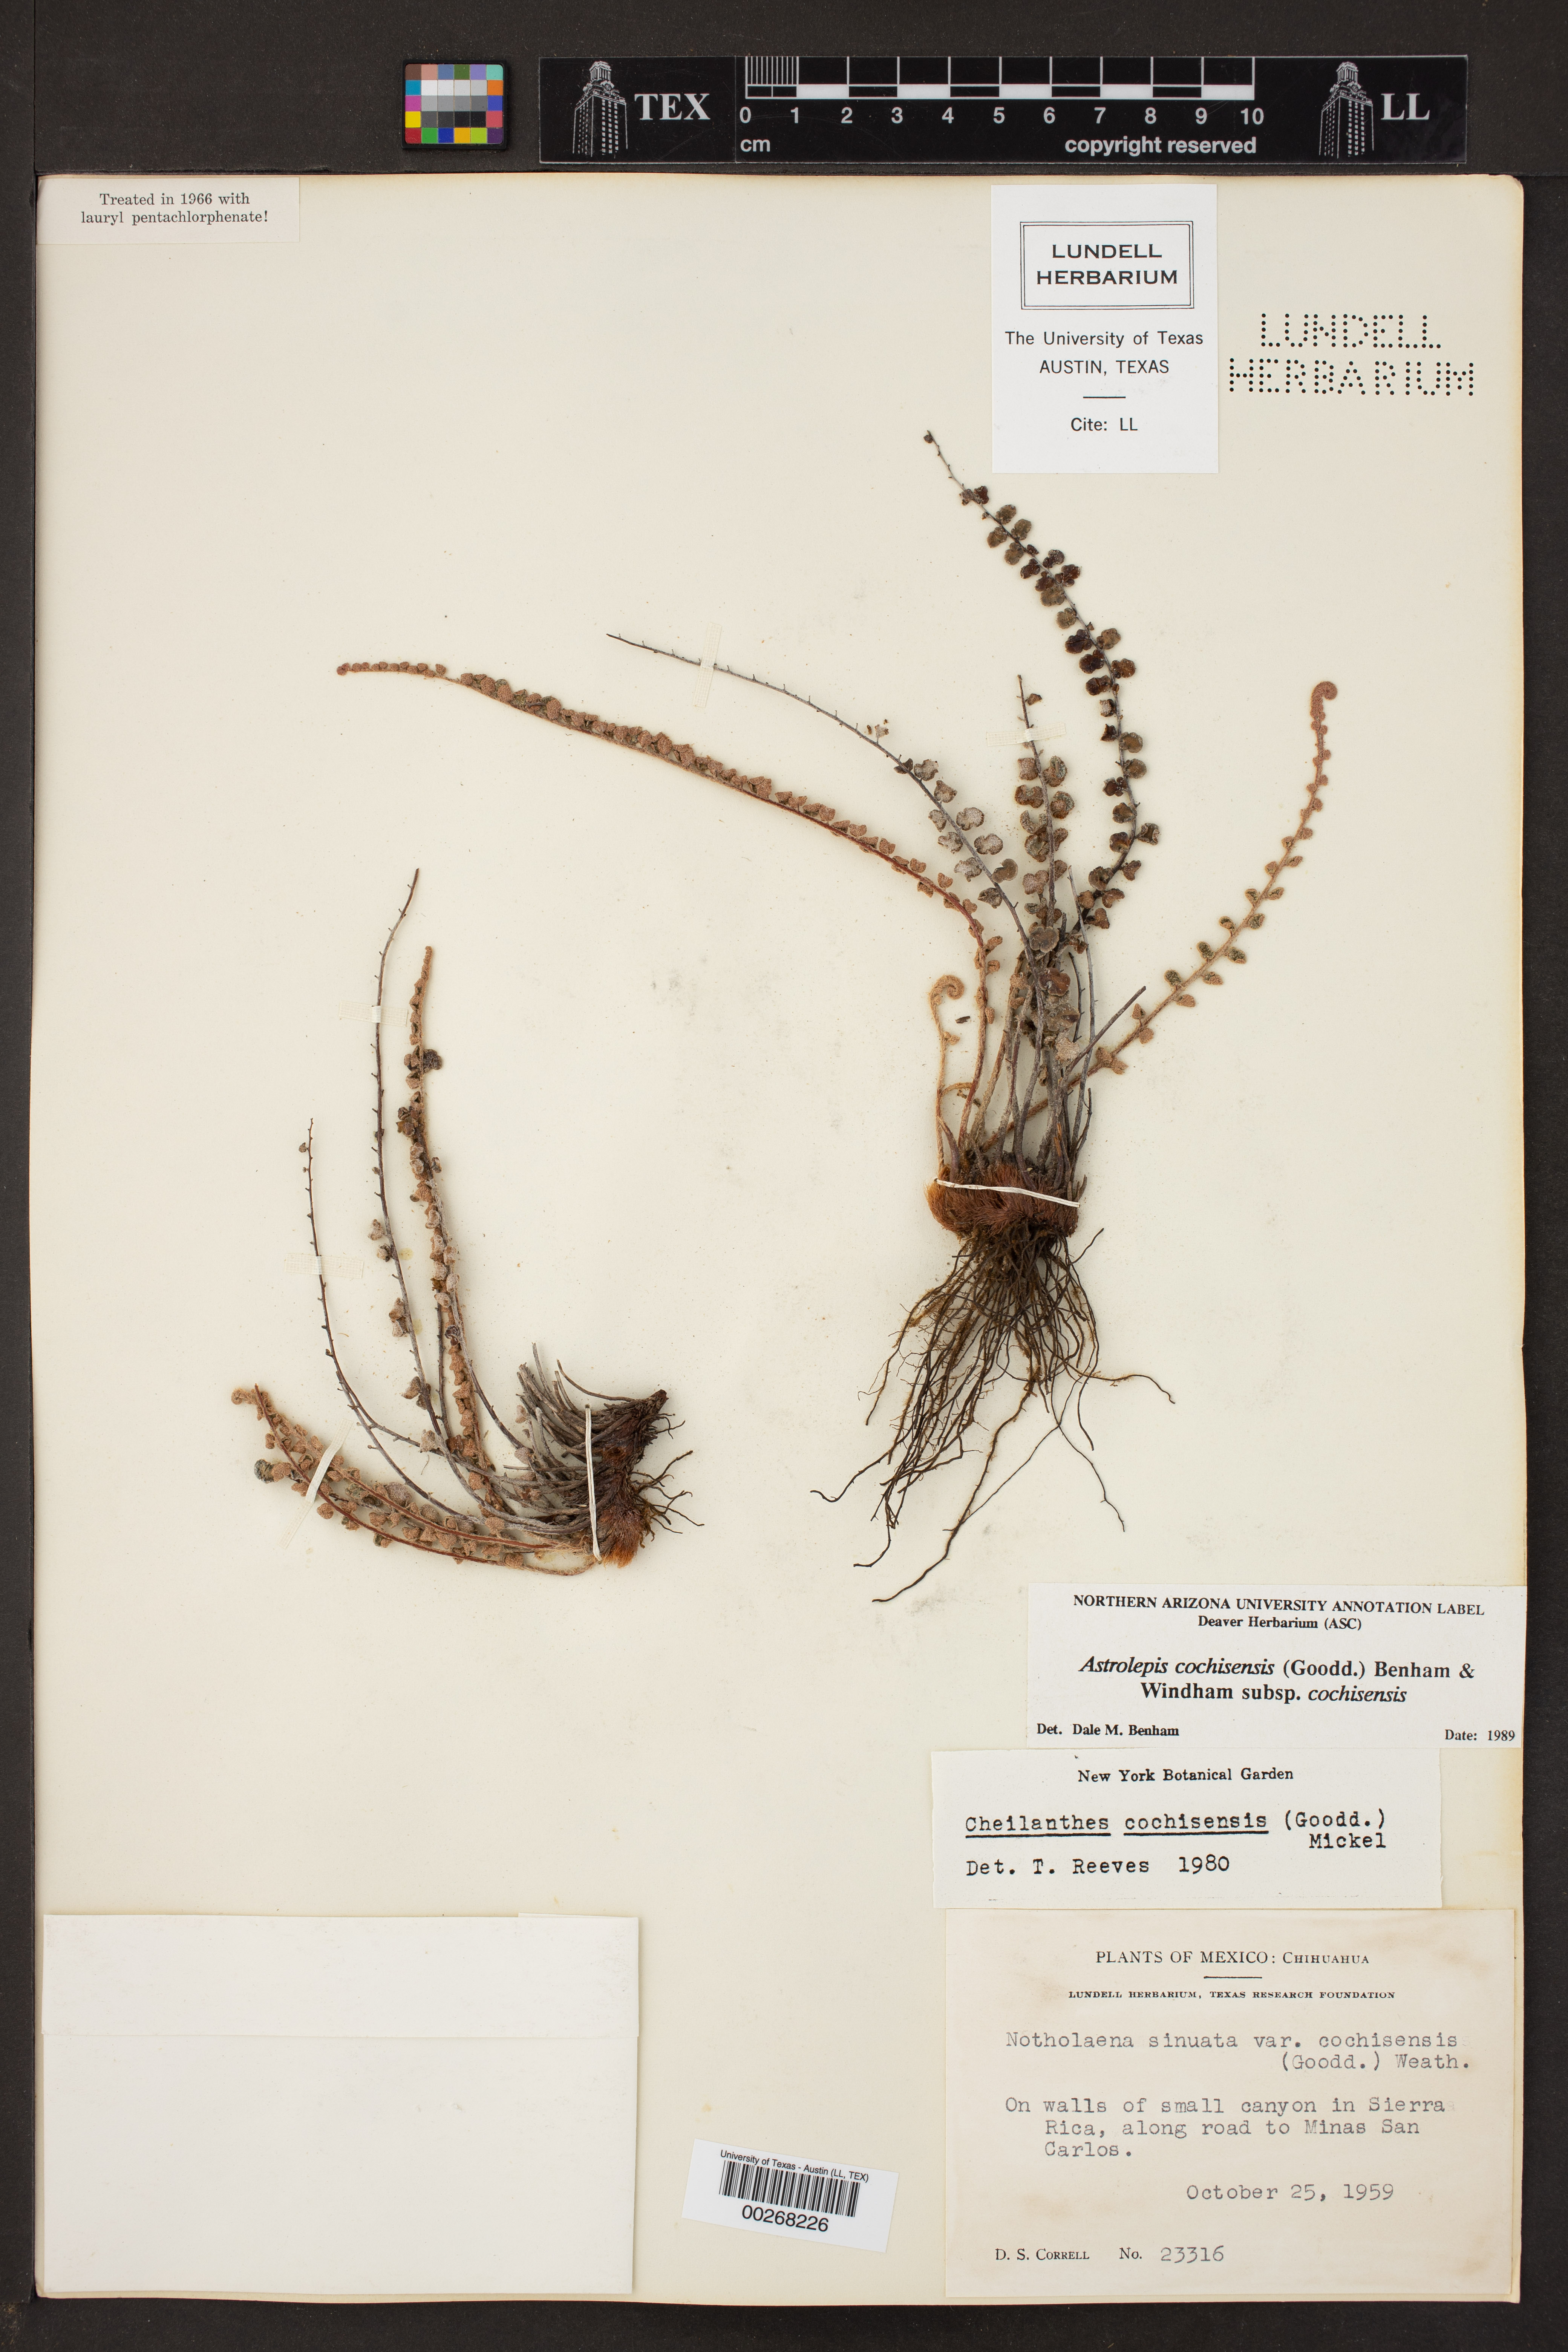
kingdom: Plantae
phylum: Tracheophyta
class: Polypodiopsida
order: Polypodiales
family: Pteridaceae
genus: Astrolepis
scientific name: Astrolepis cochisensis
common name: Scaly cloak fern
